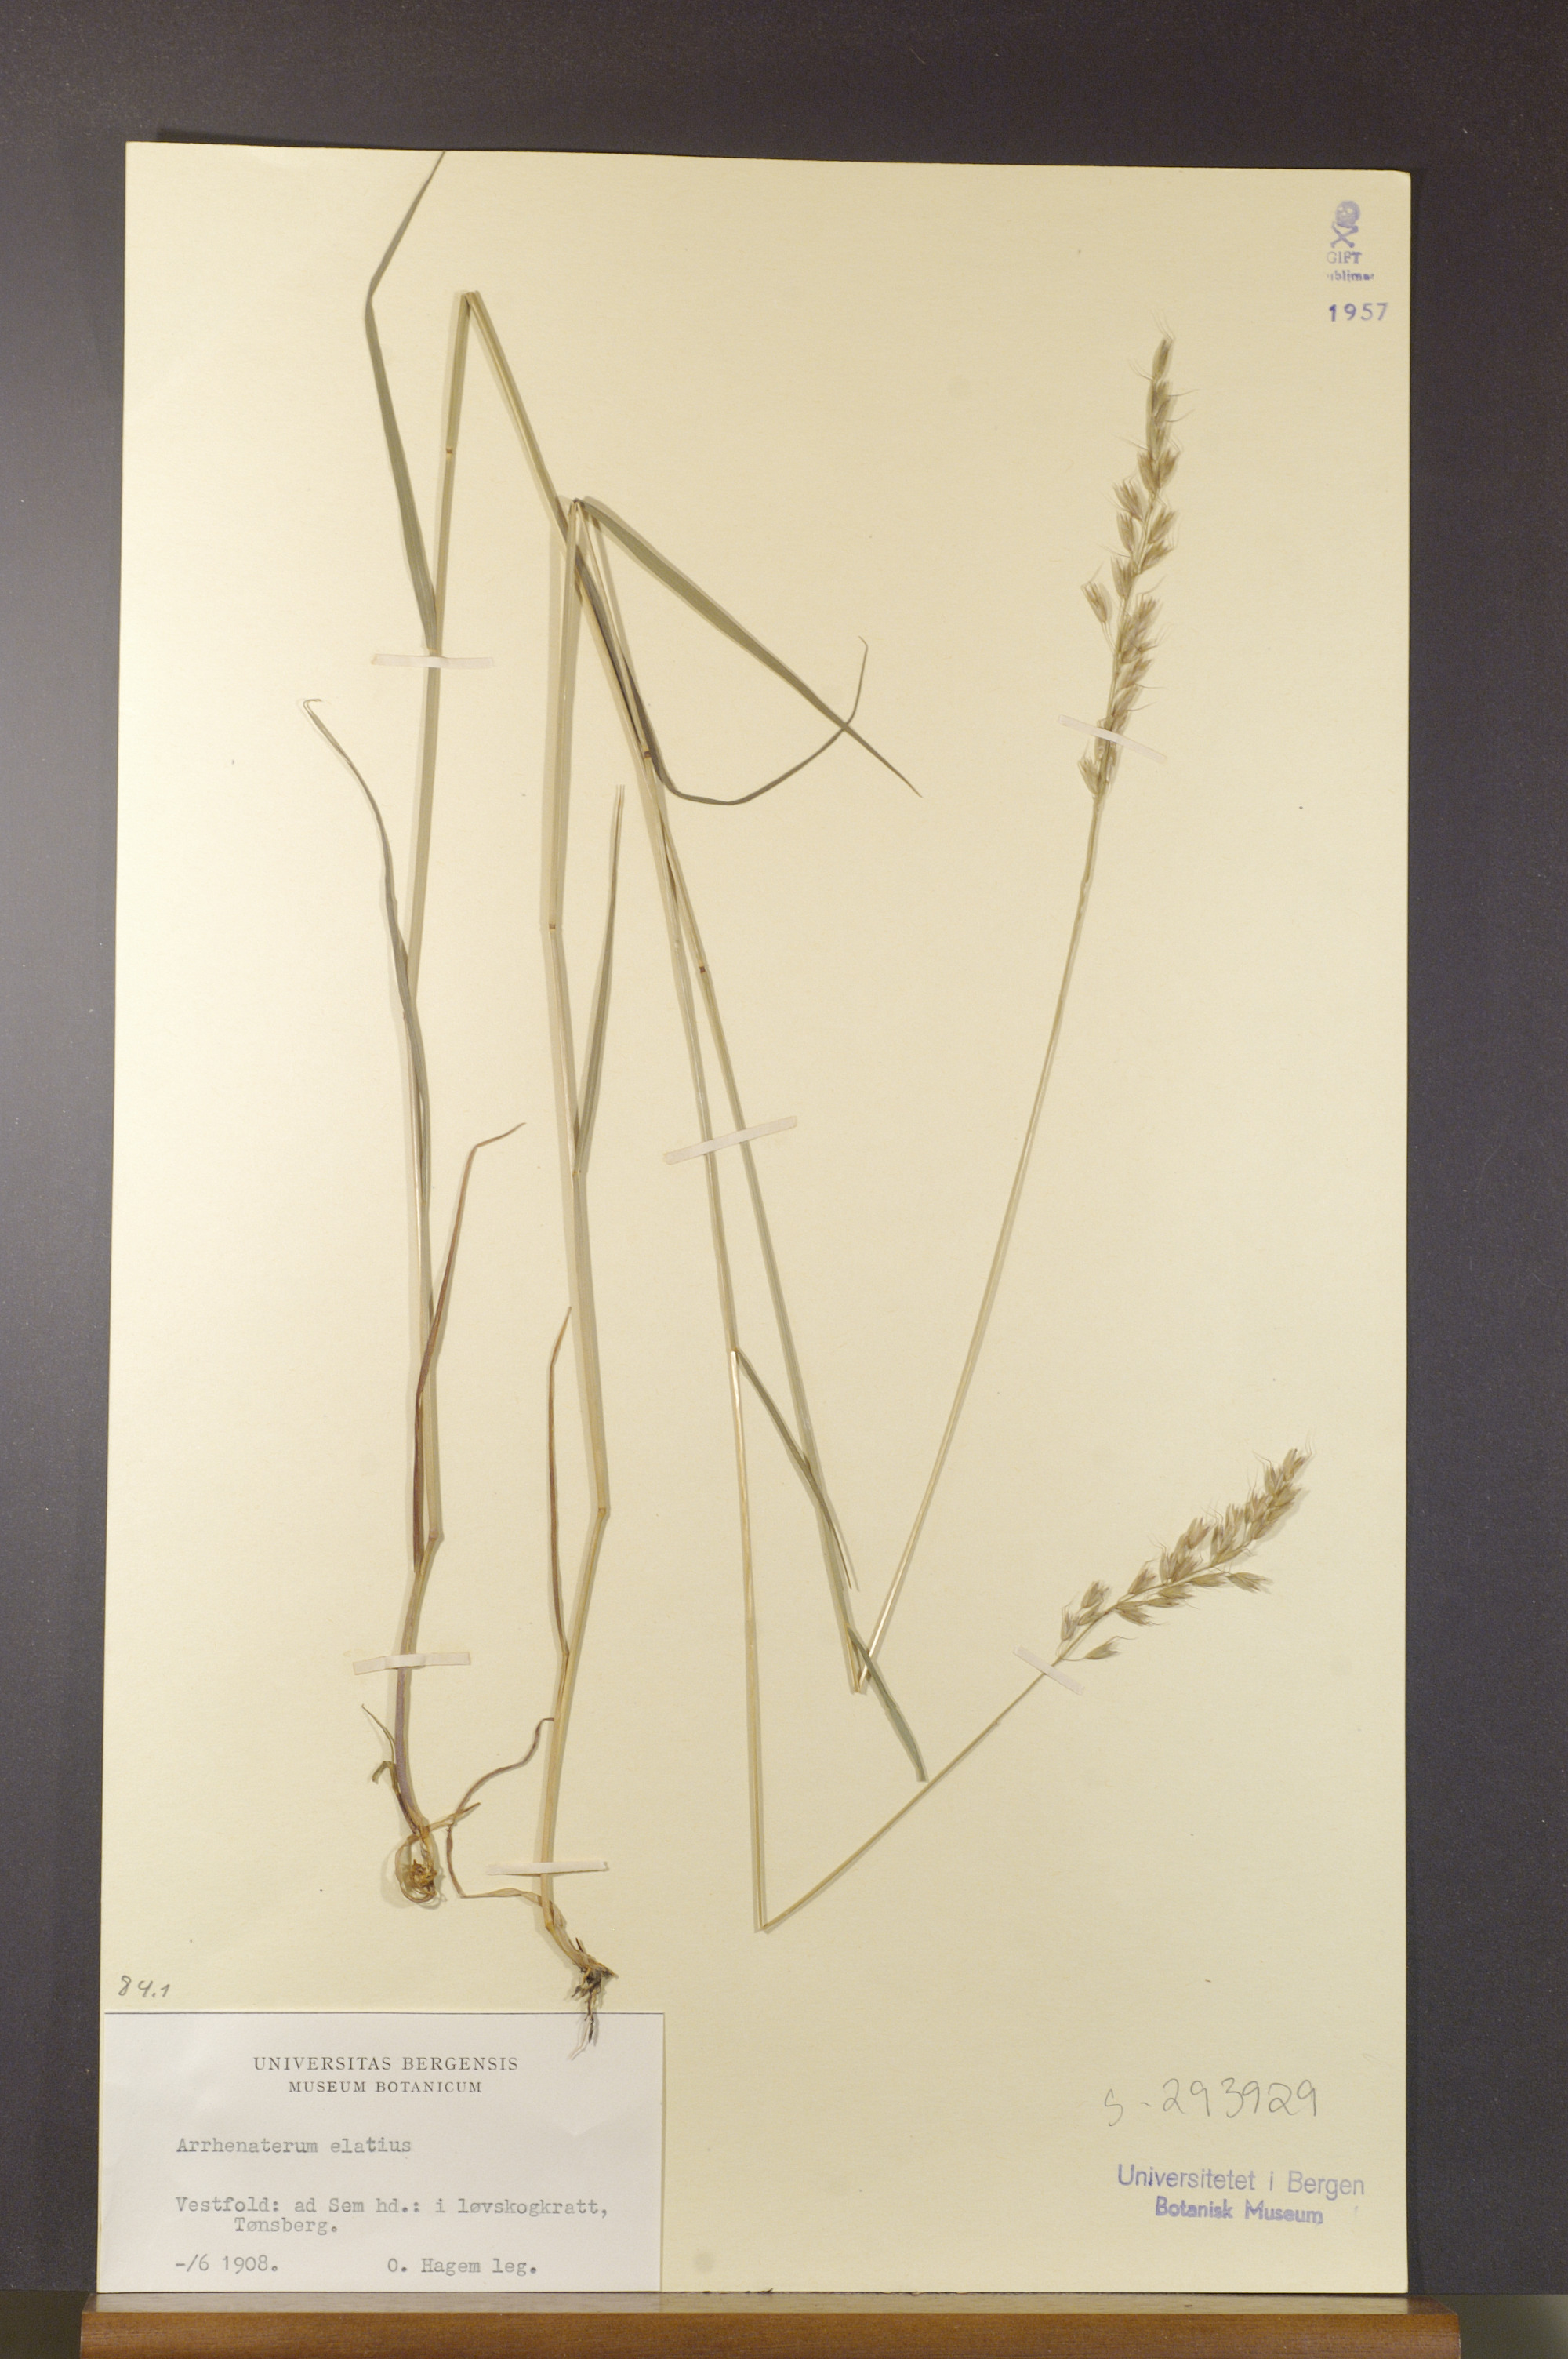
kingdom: Plantae
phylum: Tracheophyta
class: Liliopsida
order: Poales
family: Poaceae
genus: Arrhenatherum
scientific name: Arrhenatherum elatius
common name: Tall oatgrass
